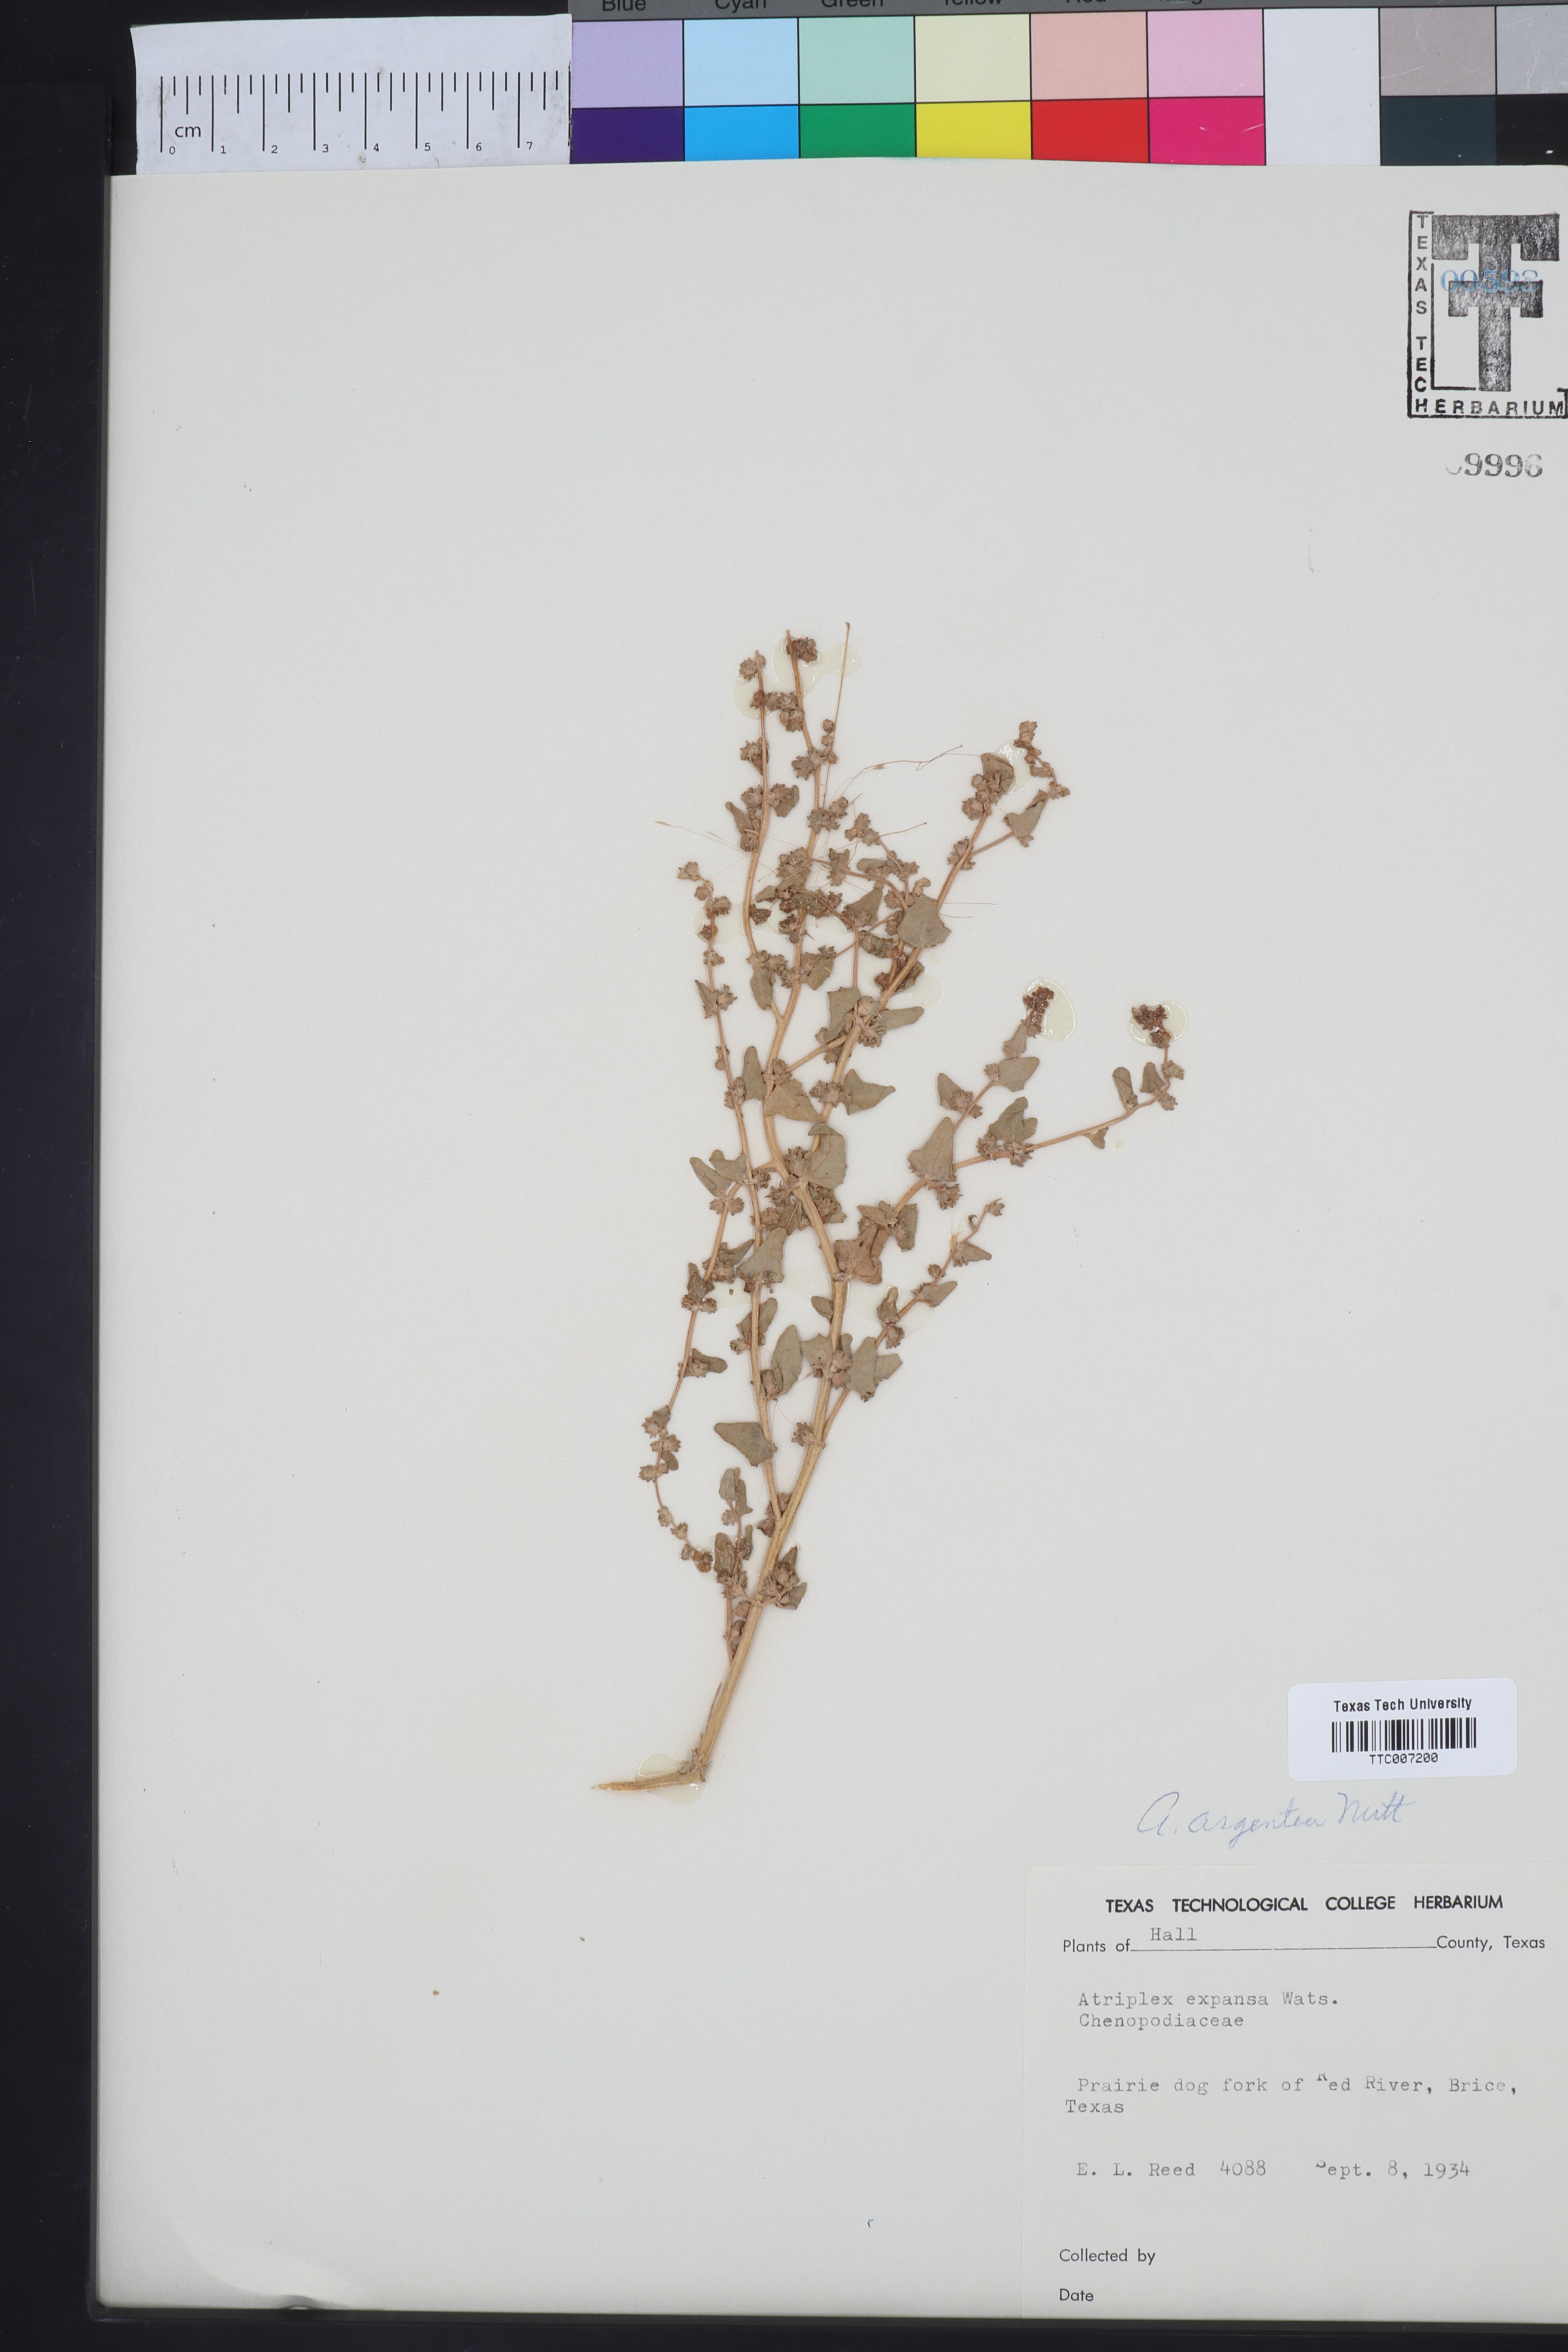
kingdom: Plantae
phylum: Tracheophyta
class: Magnoliopsida
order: Caryophyllales
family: Amaranthaceae
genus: Atriplex
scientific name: Atriplex argentea
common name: Silverscale
